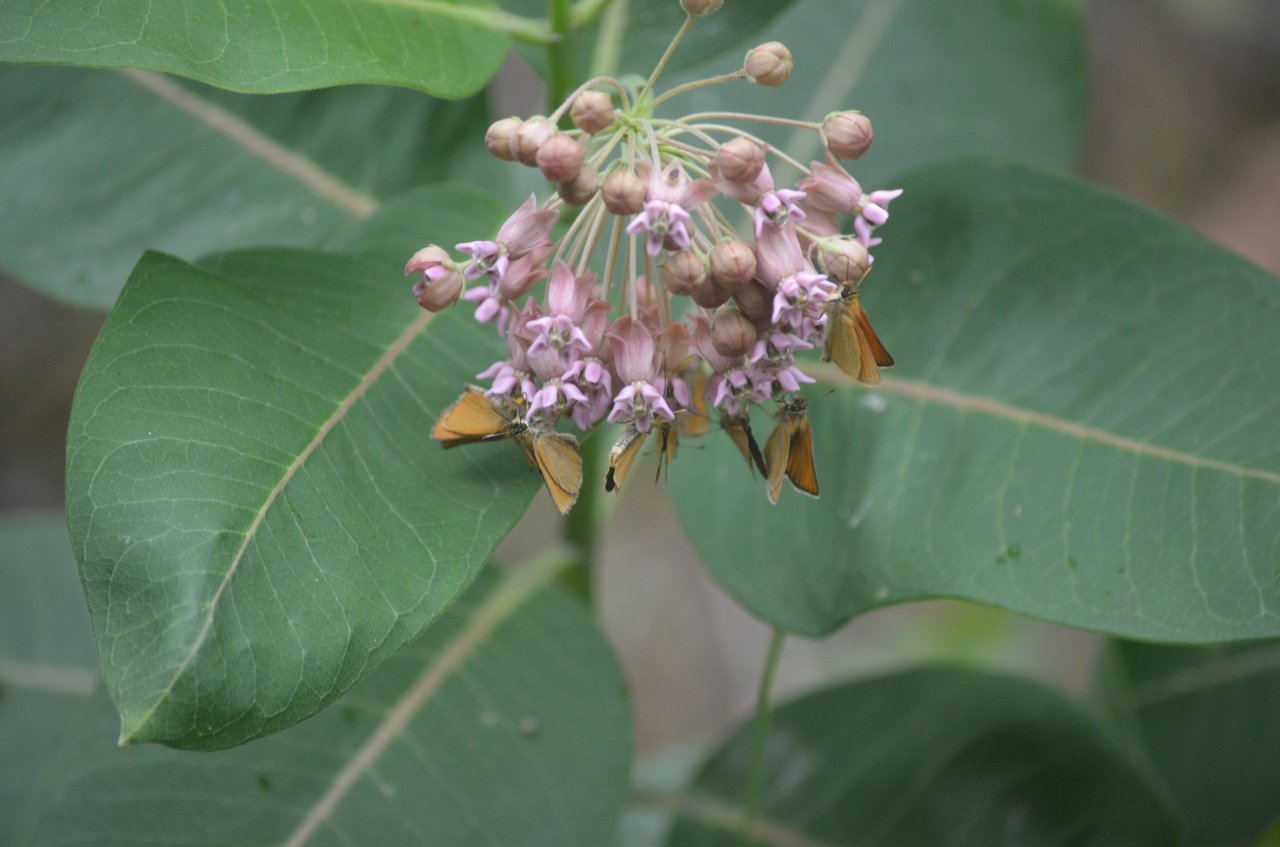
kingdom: Animalia
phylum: Arthropoda
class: Insecta
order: Lepidoptera
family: Hesperiidae
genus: Thymelicus
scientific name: Thymelicus lineola
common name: European Skipper
